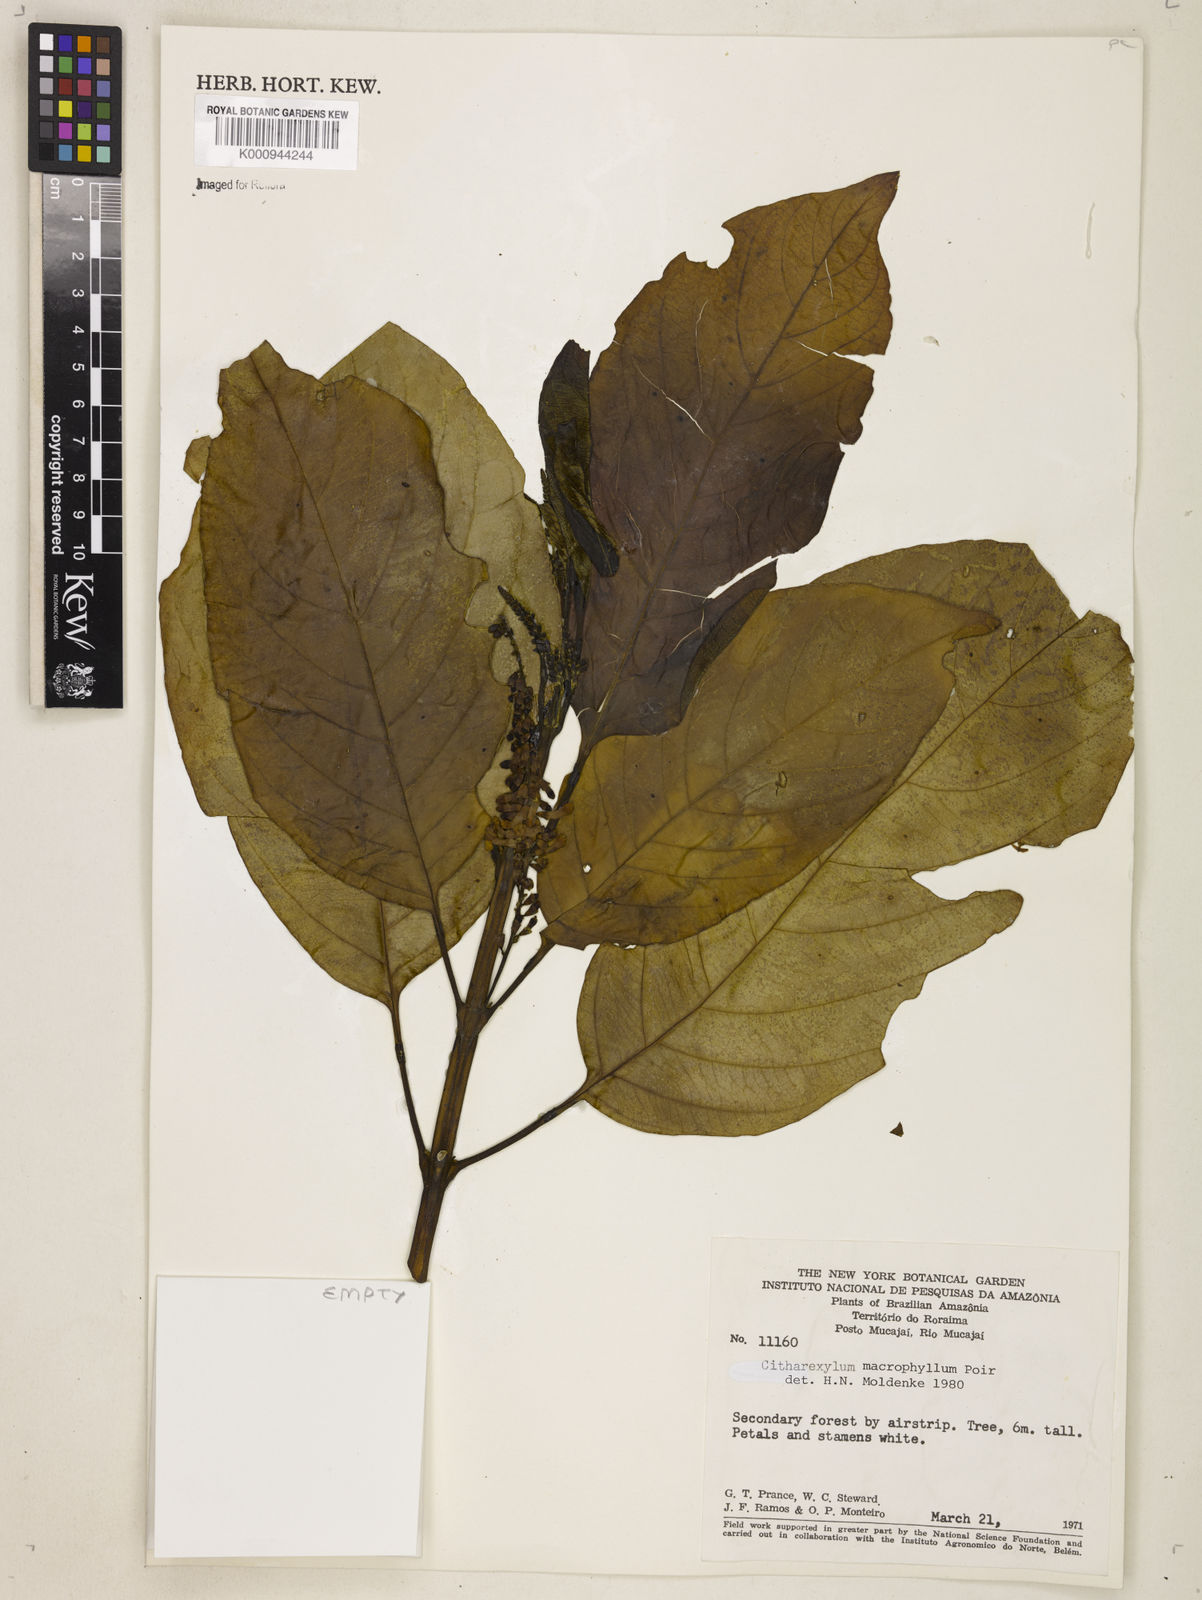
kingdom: Plantae
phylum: Tracheophyta
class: Magnoliopsida
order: Lamiales
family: Verbenaceae
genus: Citharexylum
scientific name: Citharexylum spinosum
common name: Fiddlewood
